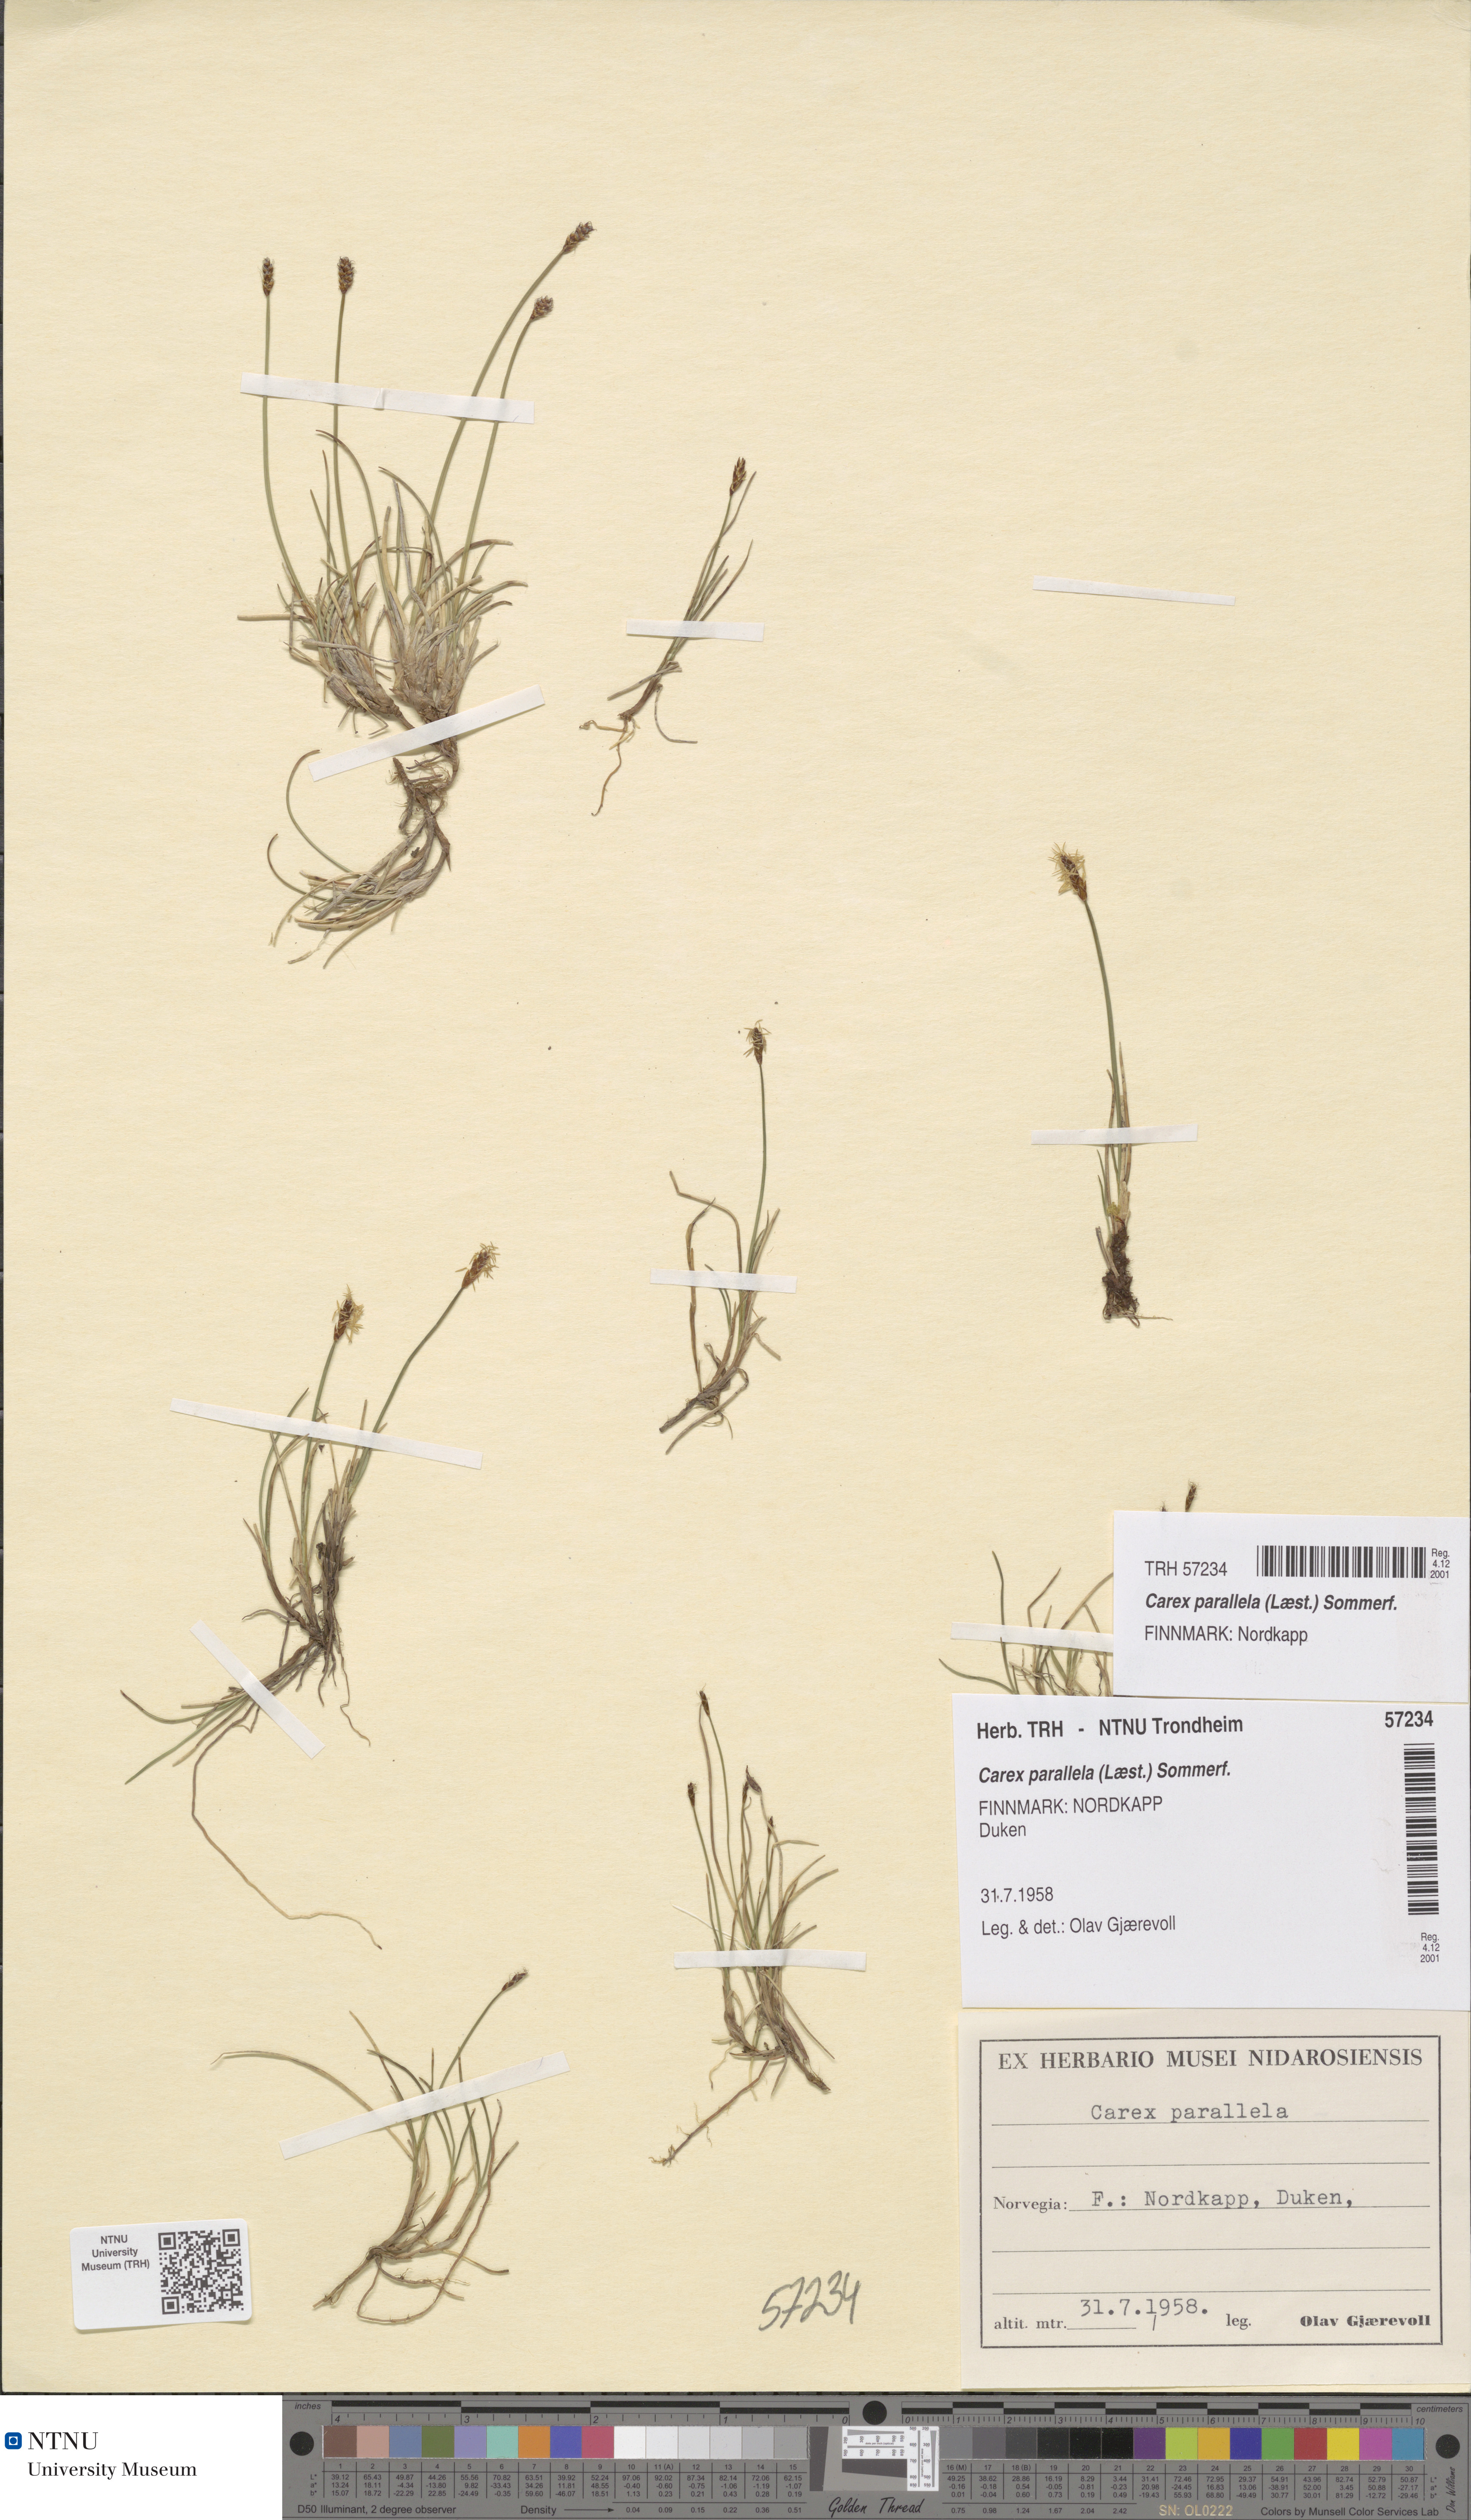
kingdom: Plantae
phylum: Tracheophyta
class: Liliopsida
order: Poales
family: Cyperaceae
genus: Carex
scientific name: Carex parallela
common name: Parallel sedge
